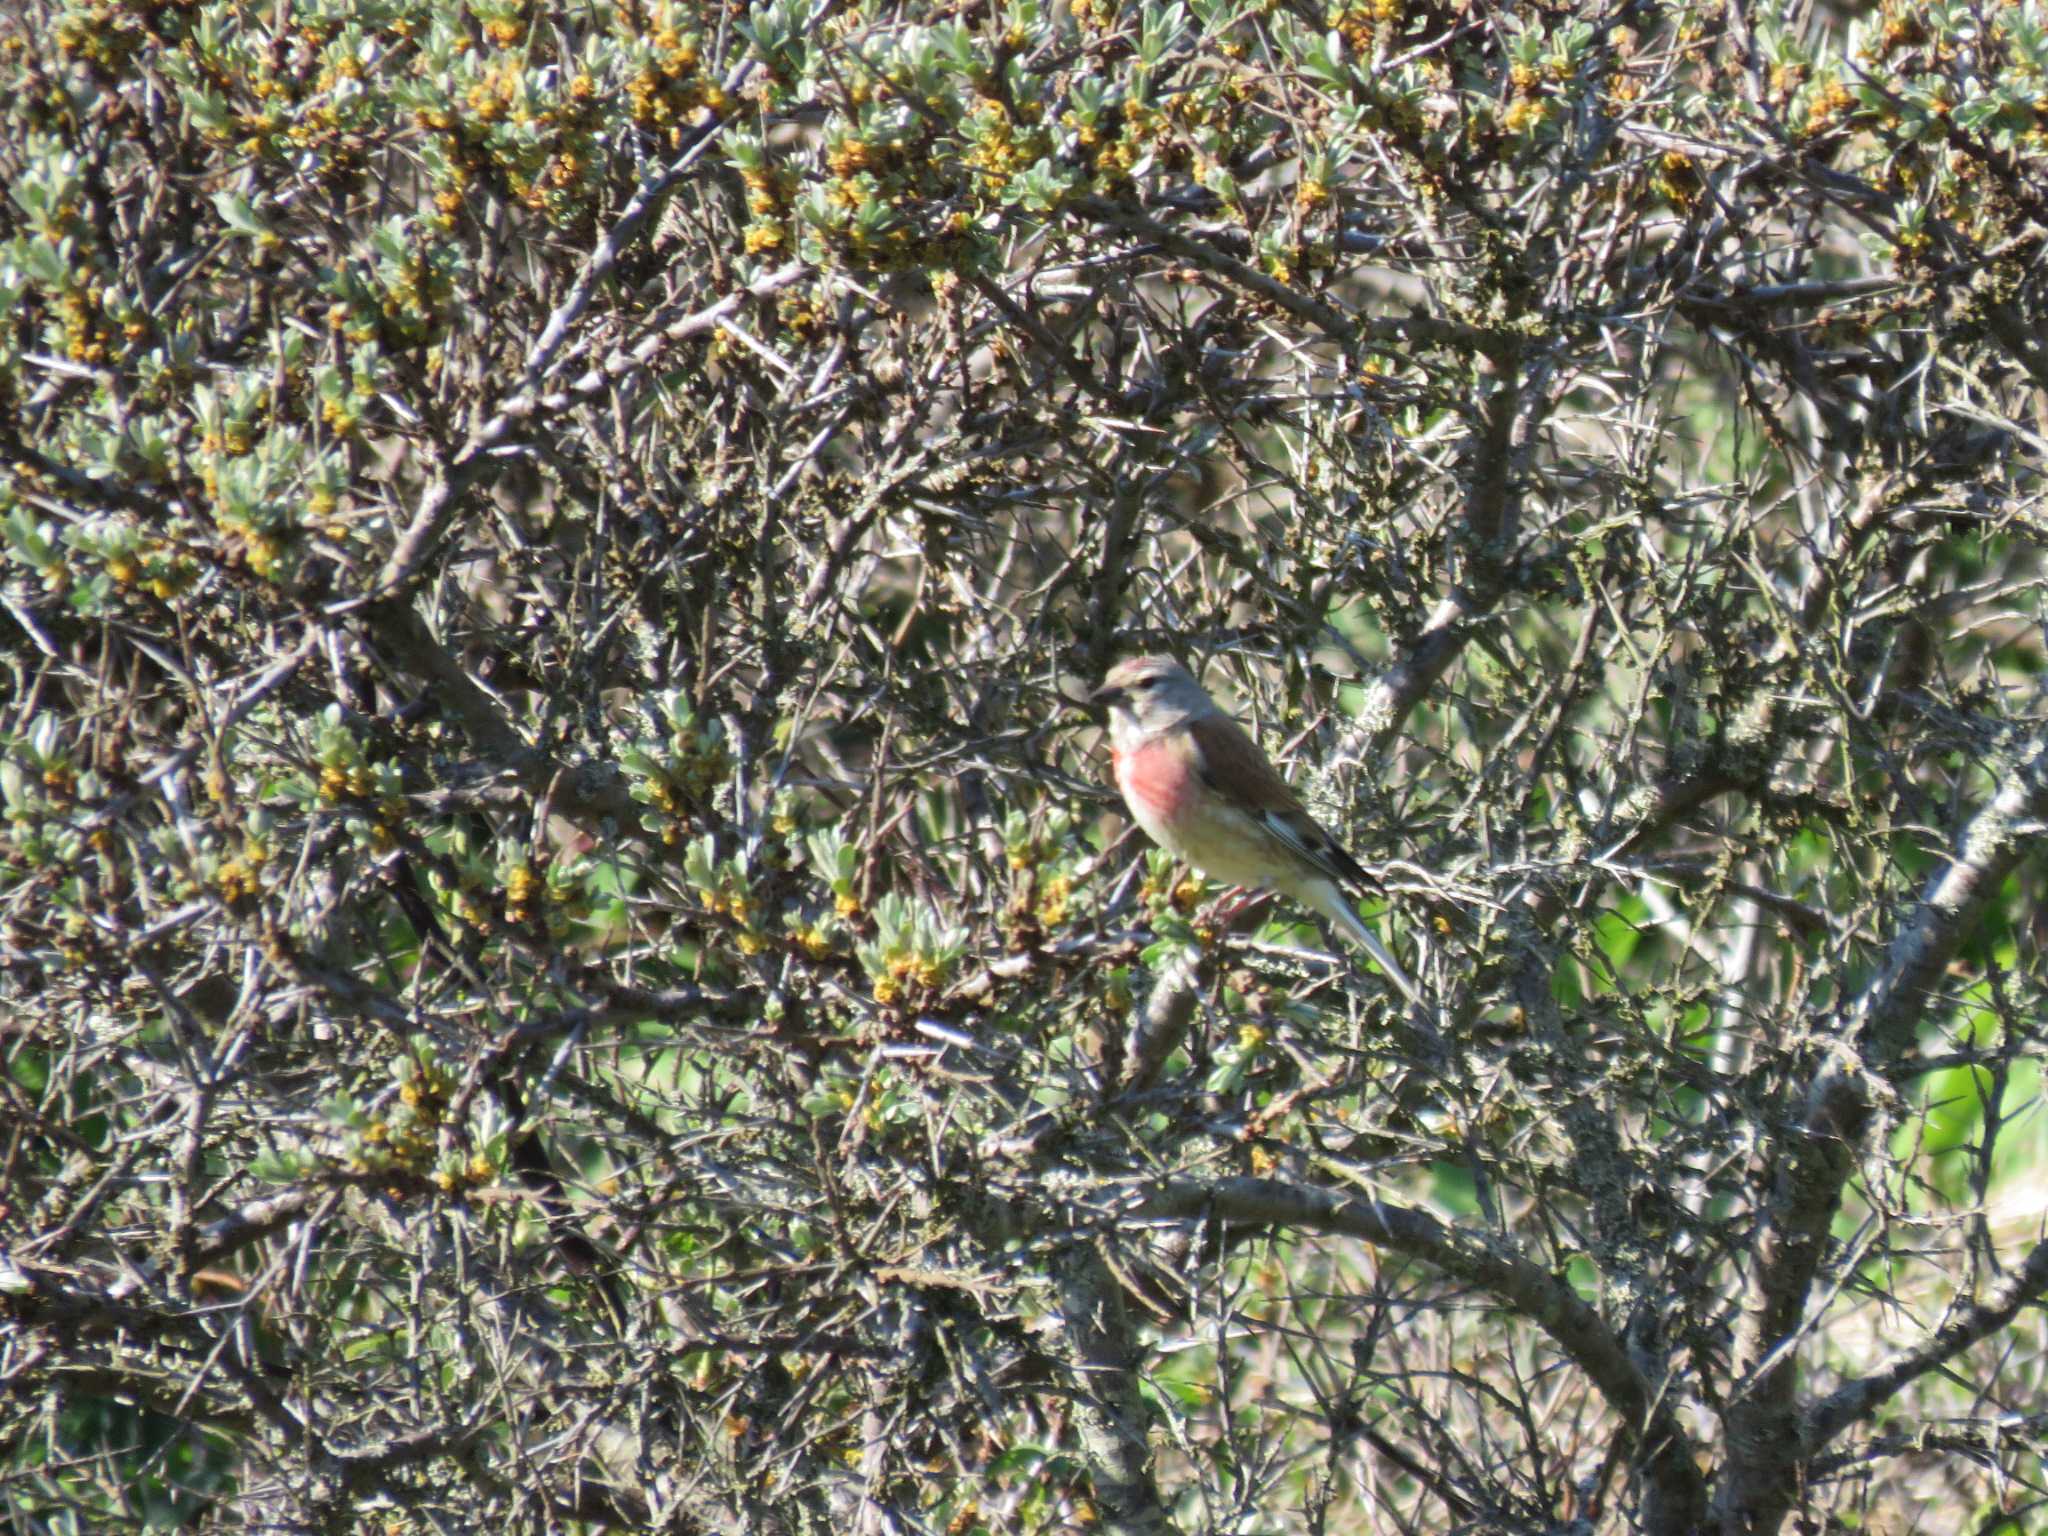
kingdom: Animalia
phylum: Chordata
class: Aves
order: Passeriformes
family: Fringillidae
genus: Linaria
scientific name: Linaria cannabina
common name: Tornirisk
